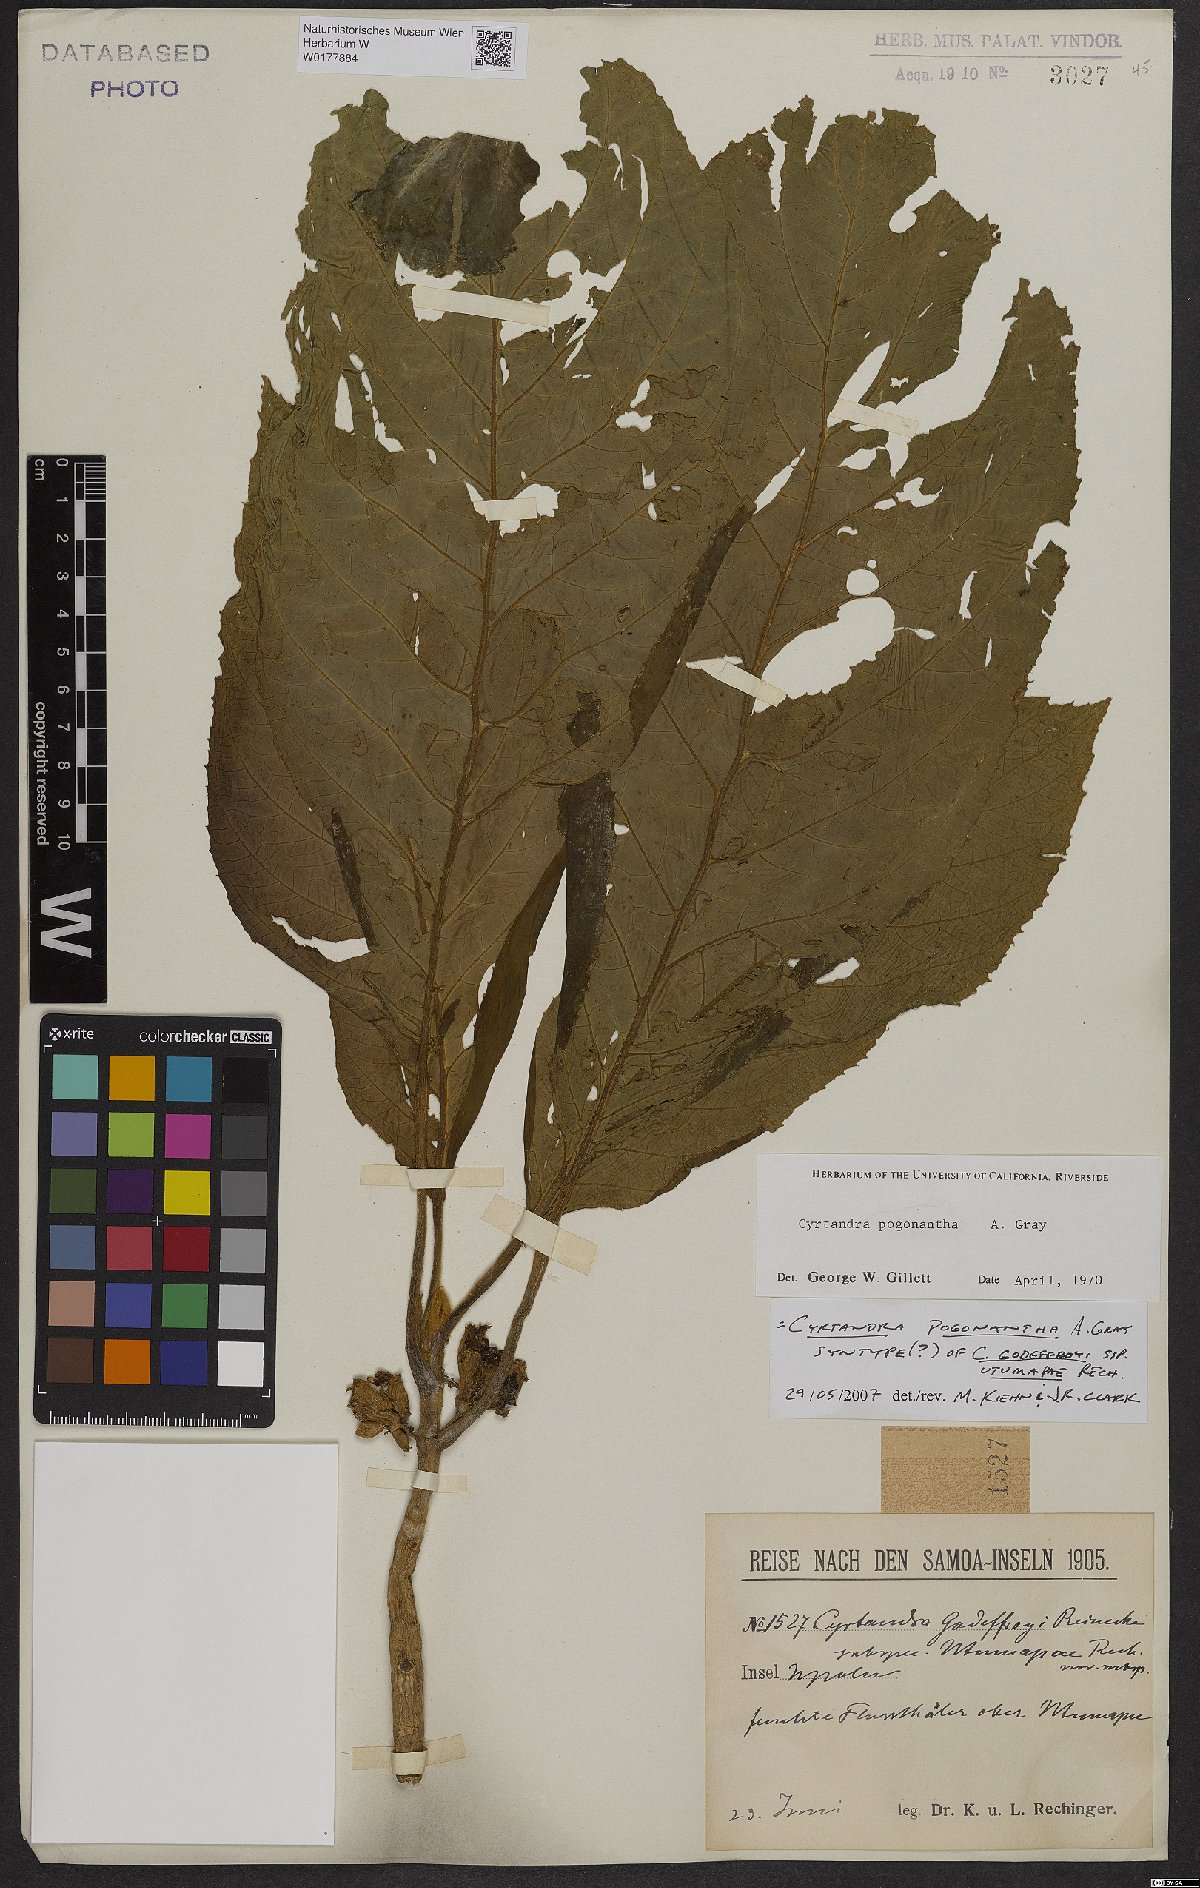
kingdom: Plantae
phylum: Tracheophyta
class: Magnoliopsida
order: Lamiales
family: Gesneriaceae
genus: Cyrtandra
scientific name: Cyrtandra pogonantha
